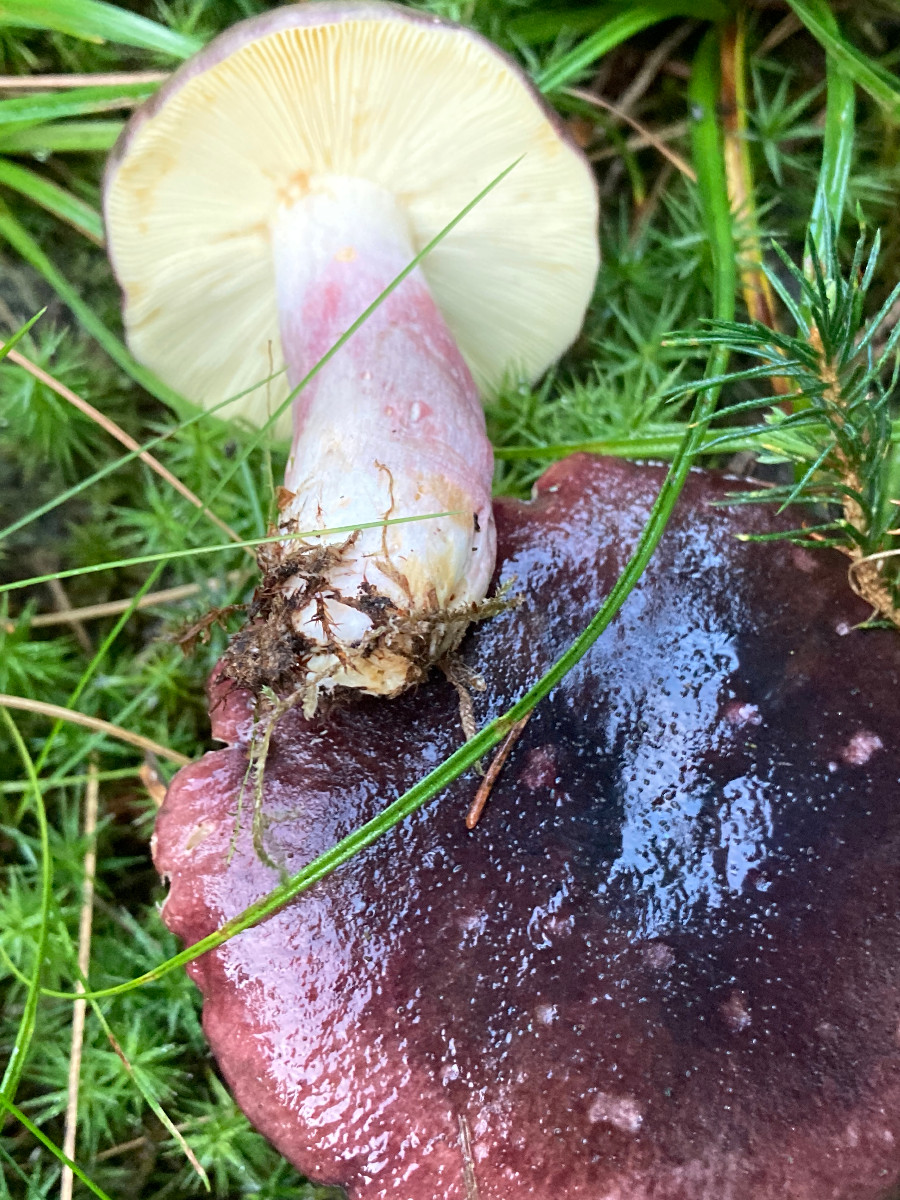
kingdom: Fungi
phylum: Basidiomycota
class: Agaricomycetes
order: Russulales
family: Russulaceae
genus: Russula
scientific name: Russula sardonia
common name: citronbladet skørhat
